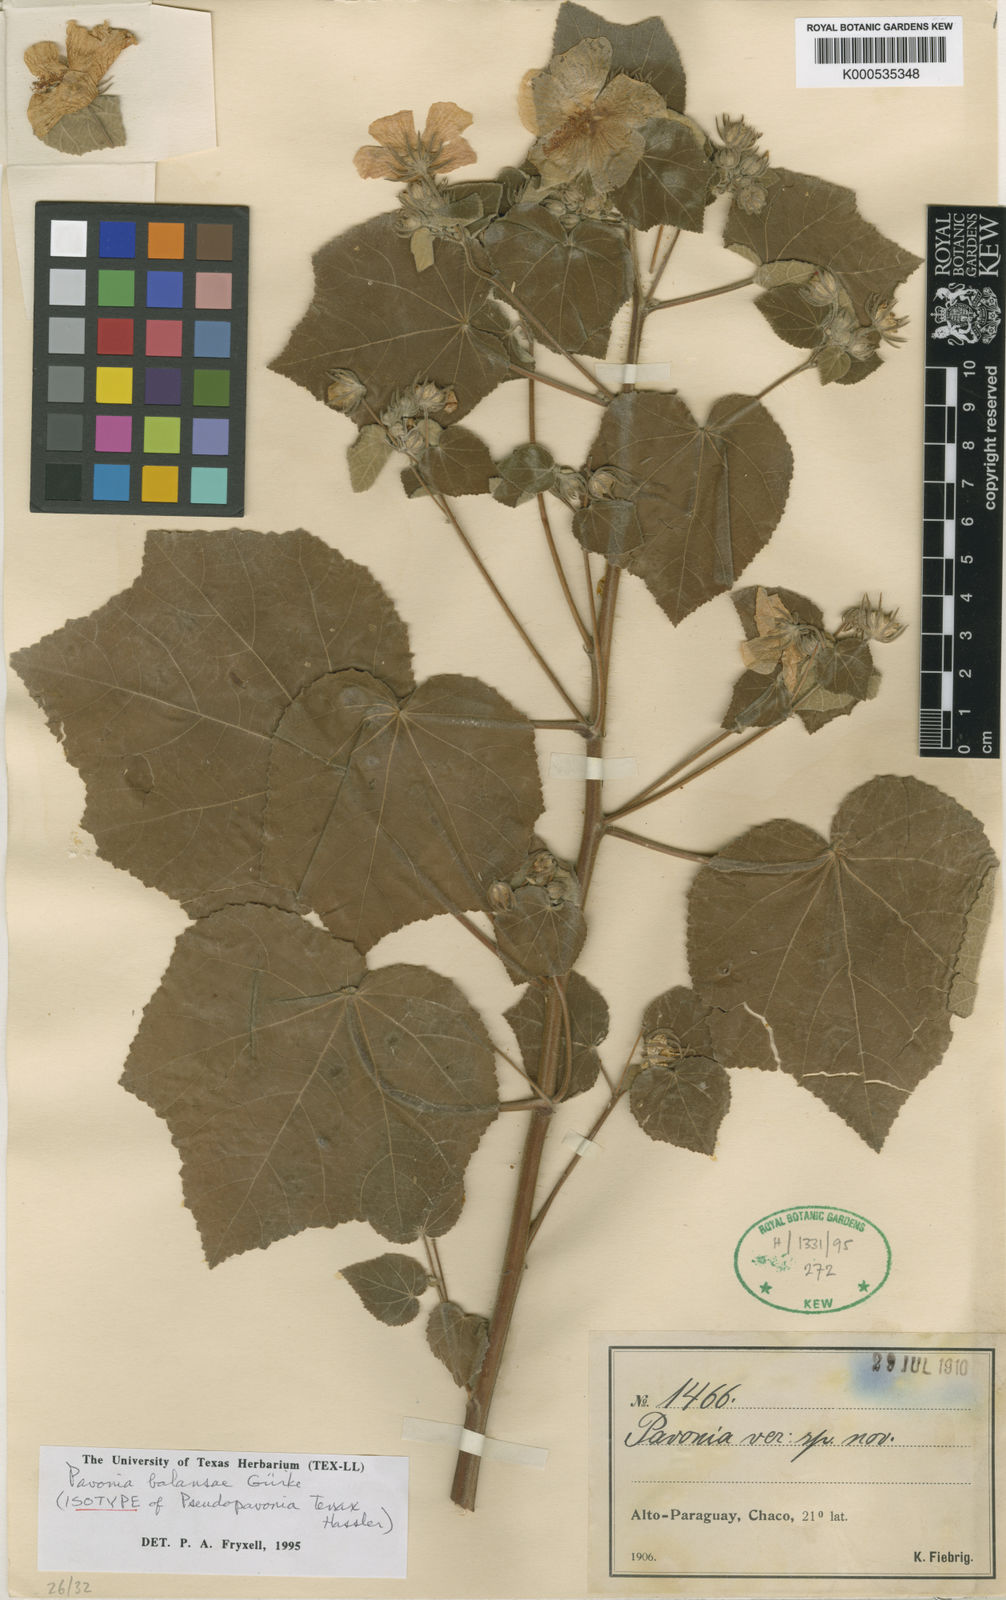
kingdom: Plantae
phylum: Tracheophyta
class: Magnoliopsida
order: Malvales
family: Malvaceae
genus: Pavonia
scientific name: Pavonia
